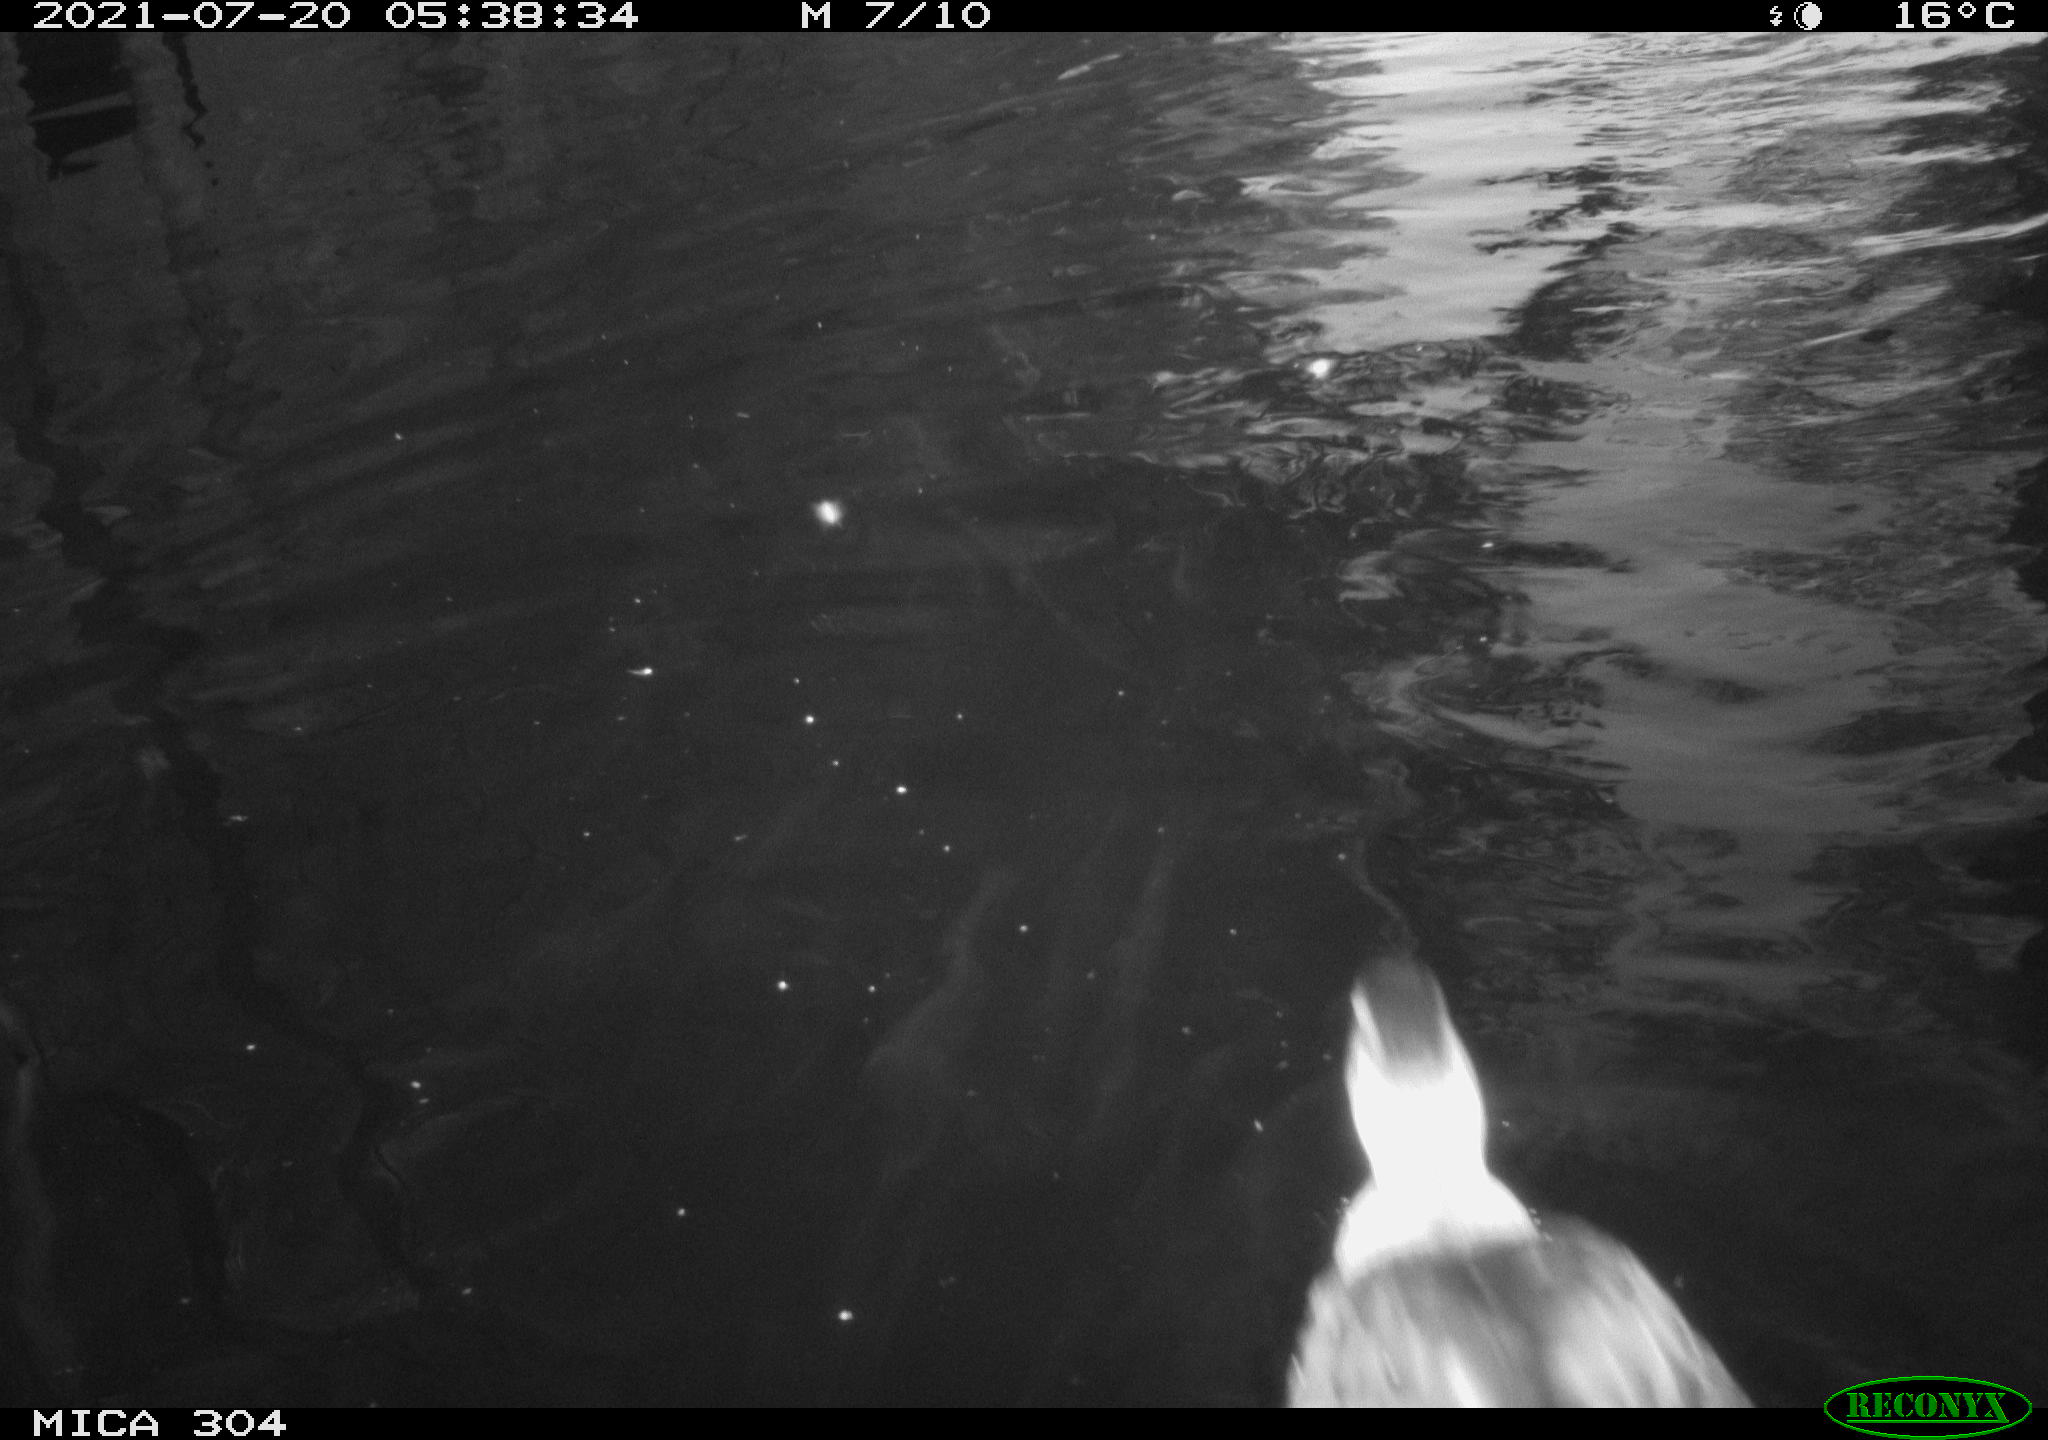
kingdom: Animalia
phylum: Chordata
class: Aves
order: Anseriformes
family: Anatidae
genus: Mareca
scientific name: Mareca strepera
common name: Gadwall
